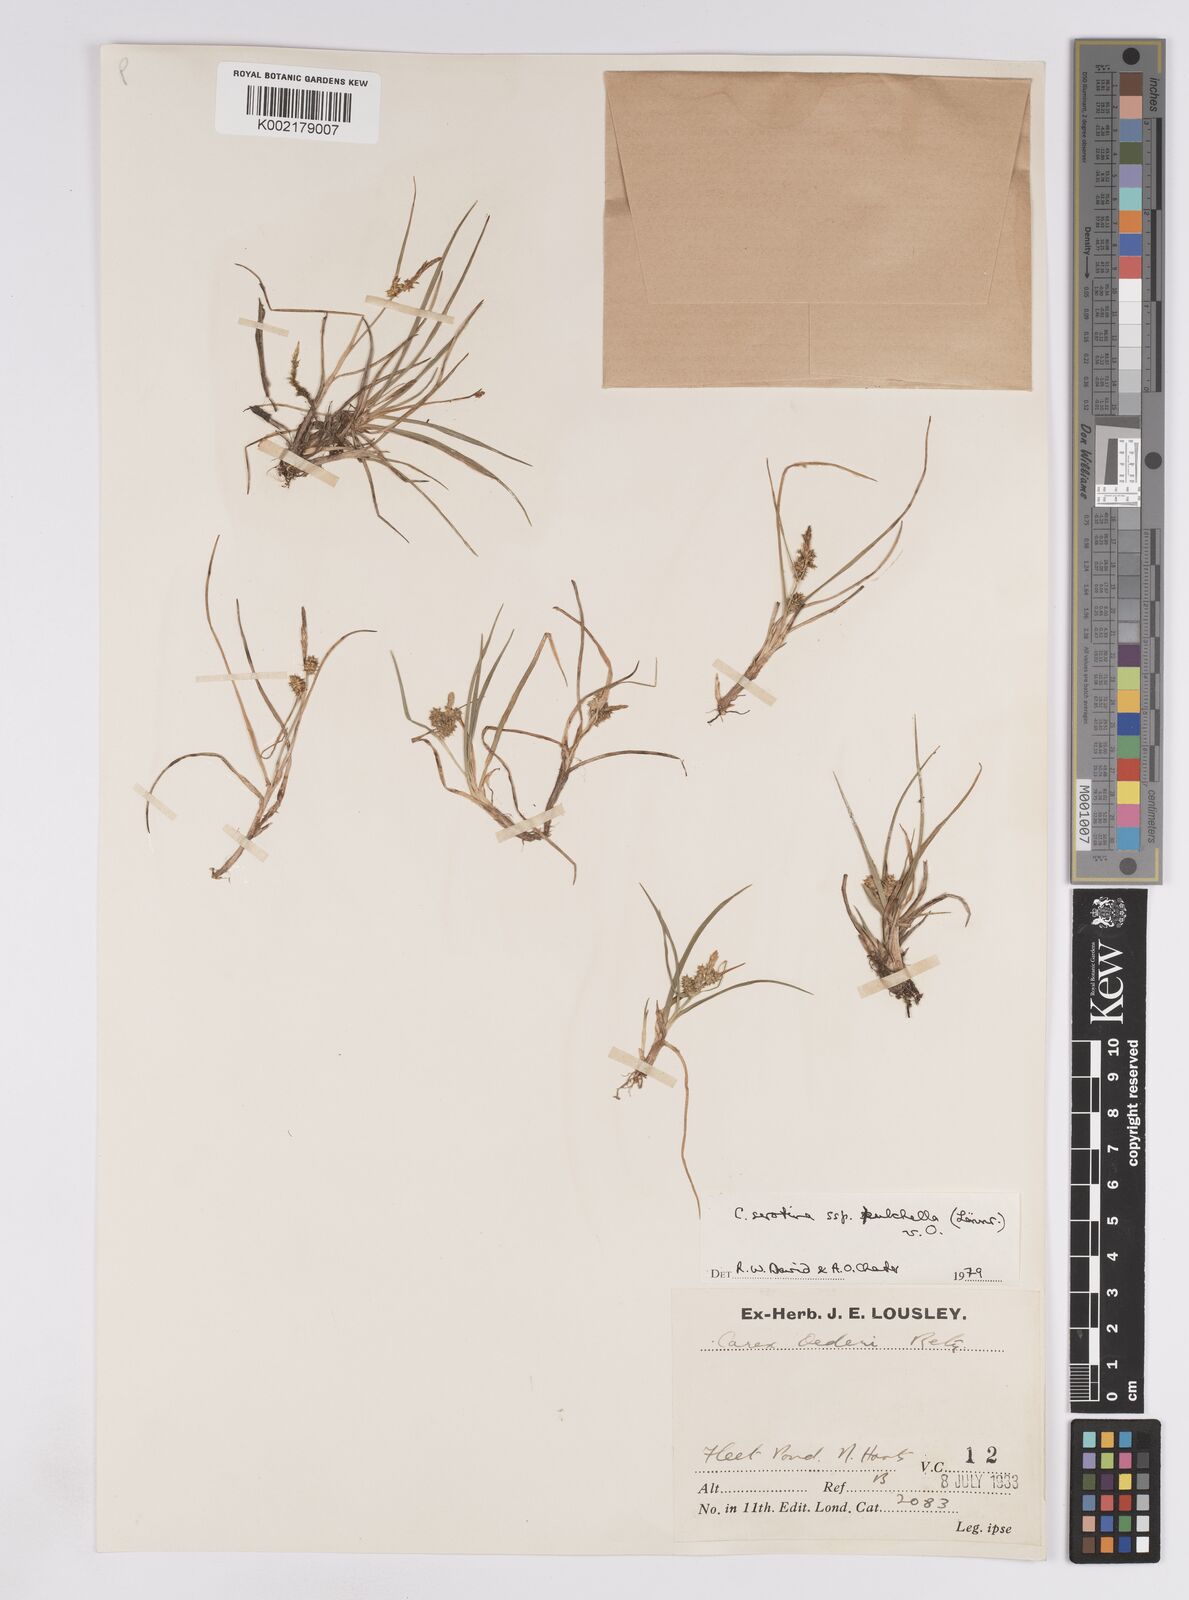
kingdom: Plantae
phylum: Tracheophyta
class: Liliopsida
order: Poales
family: Cyperaceae
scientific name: Cyperaceae
